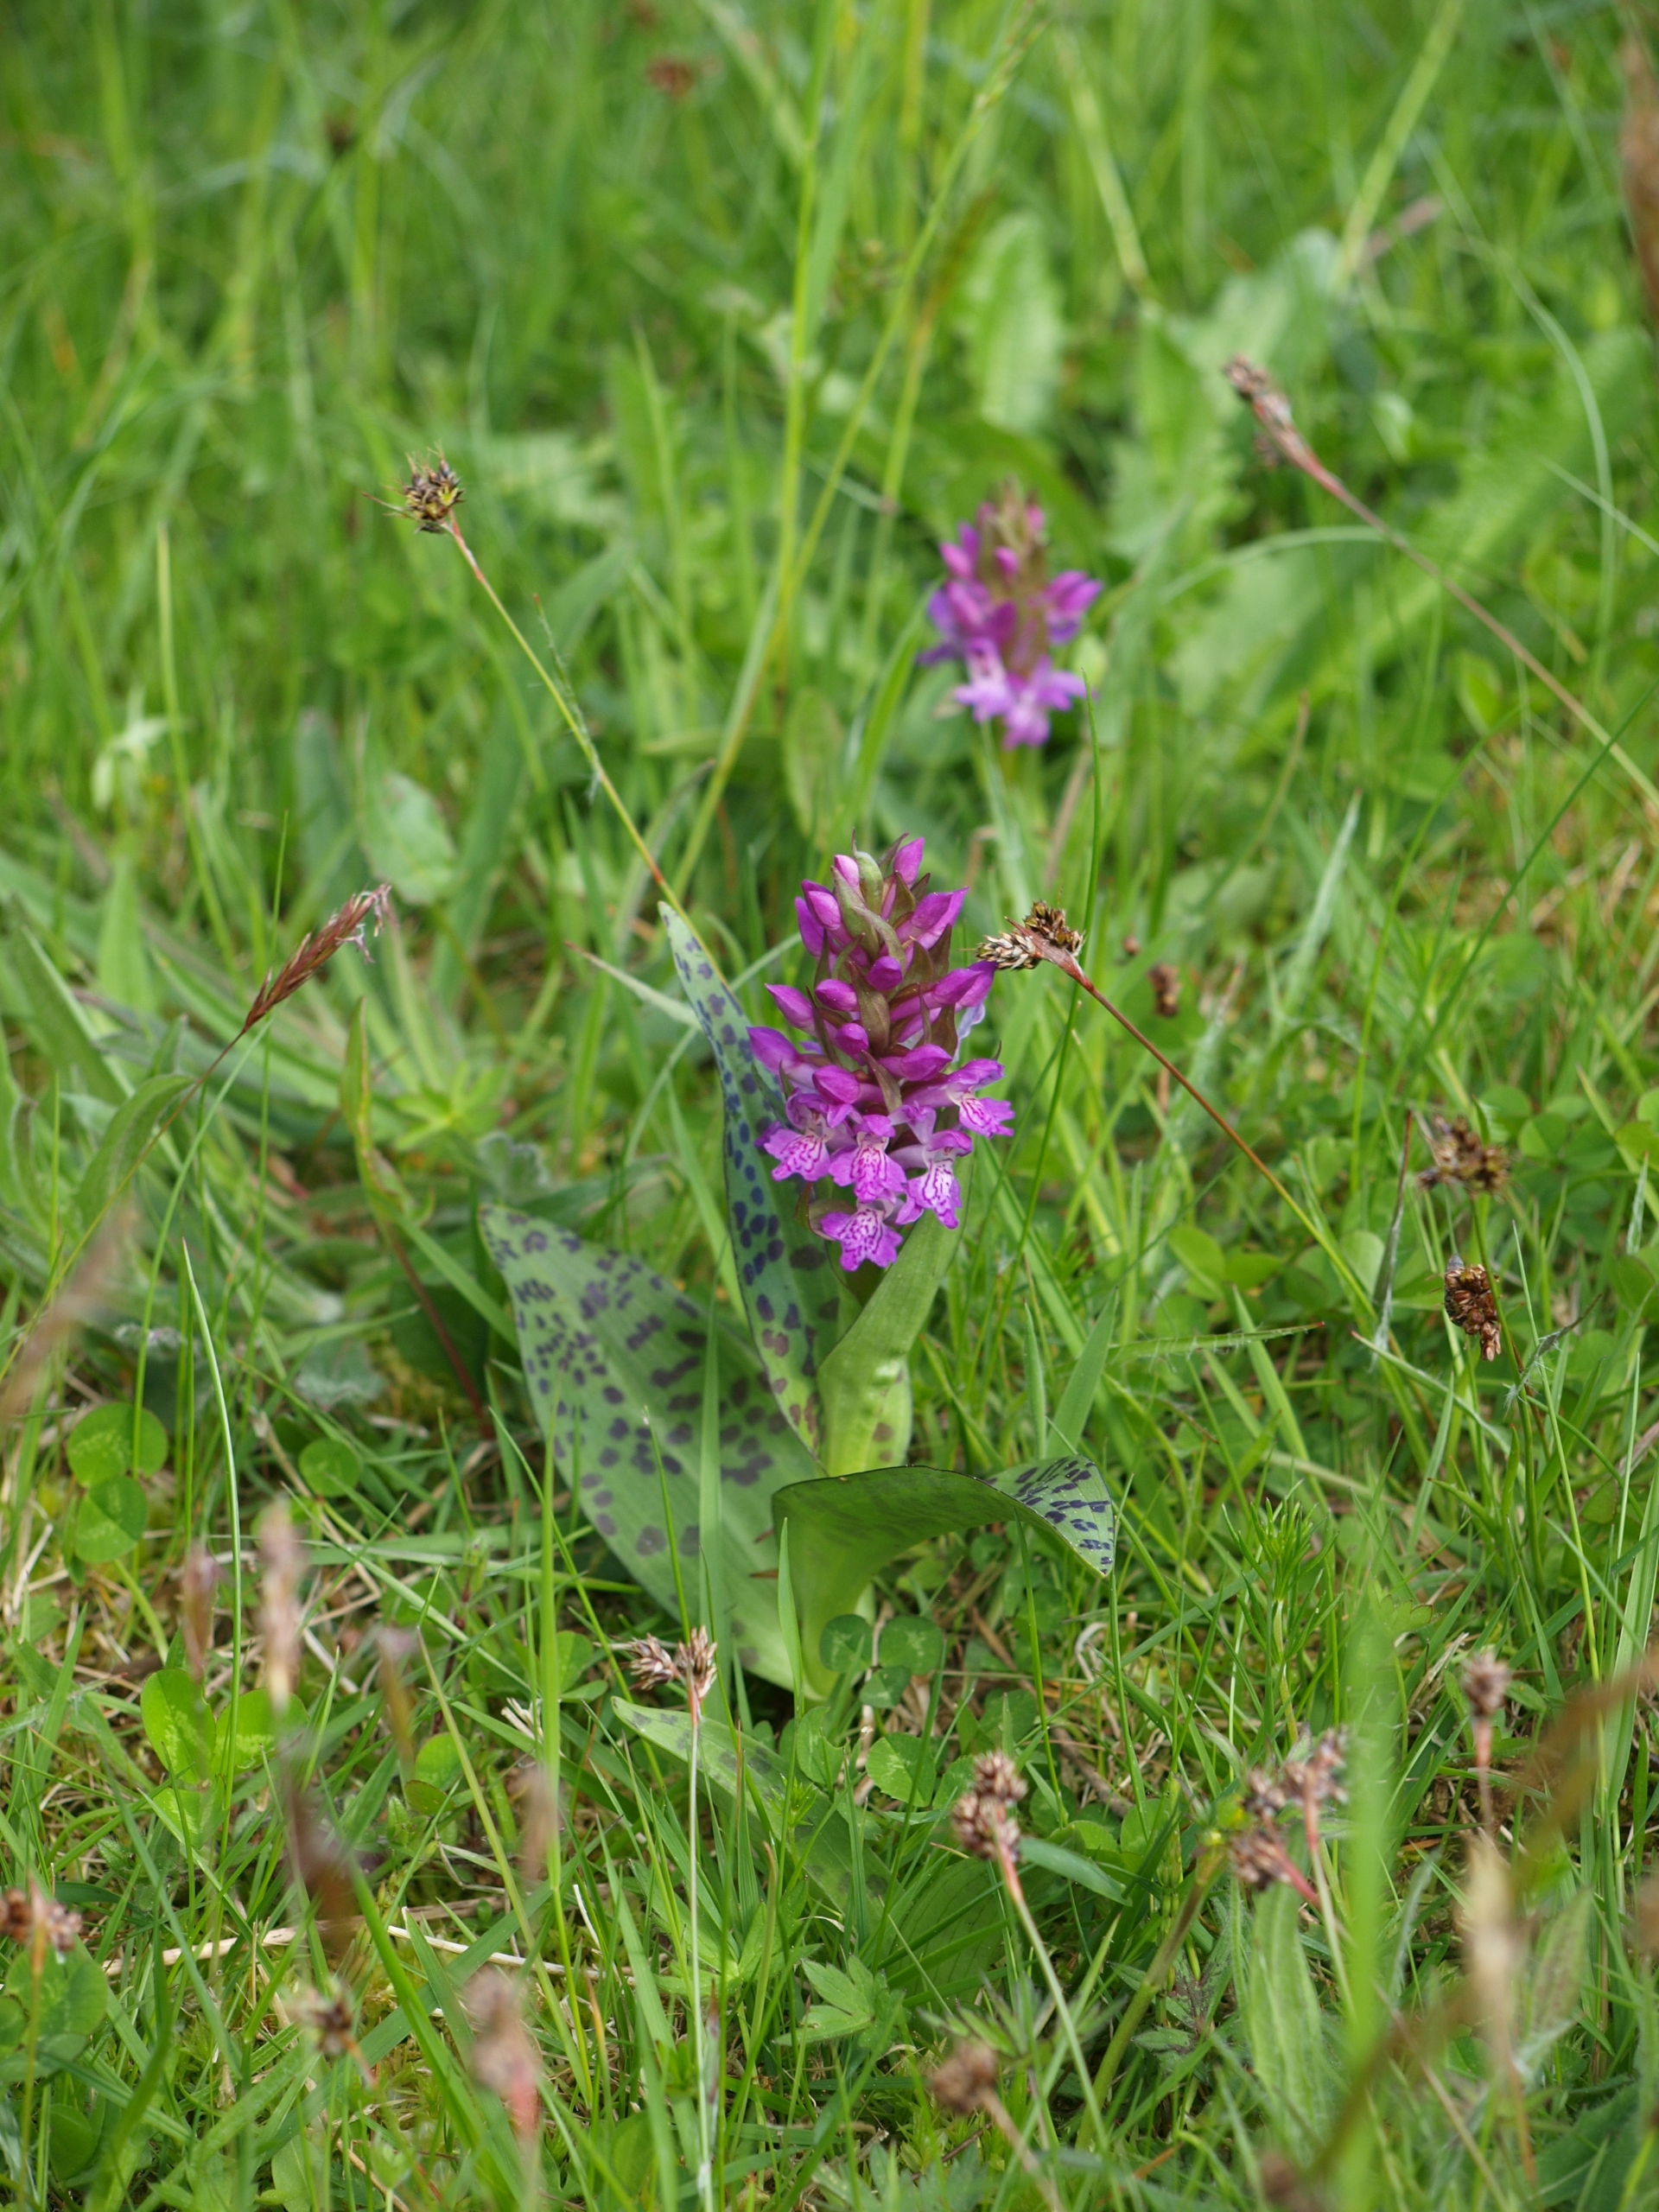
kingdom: Plantae
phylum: Tracheophyta
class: Liliopsida
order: Asparagales
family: Orchidaceae
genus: Dactylorhiza
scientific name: Dactylorhiza majalis
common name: Maj-gøgeurt
